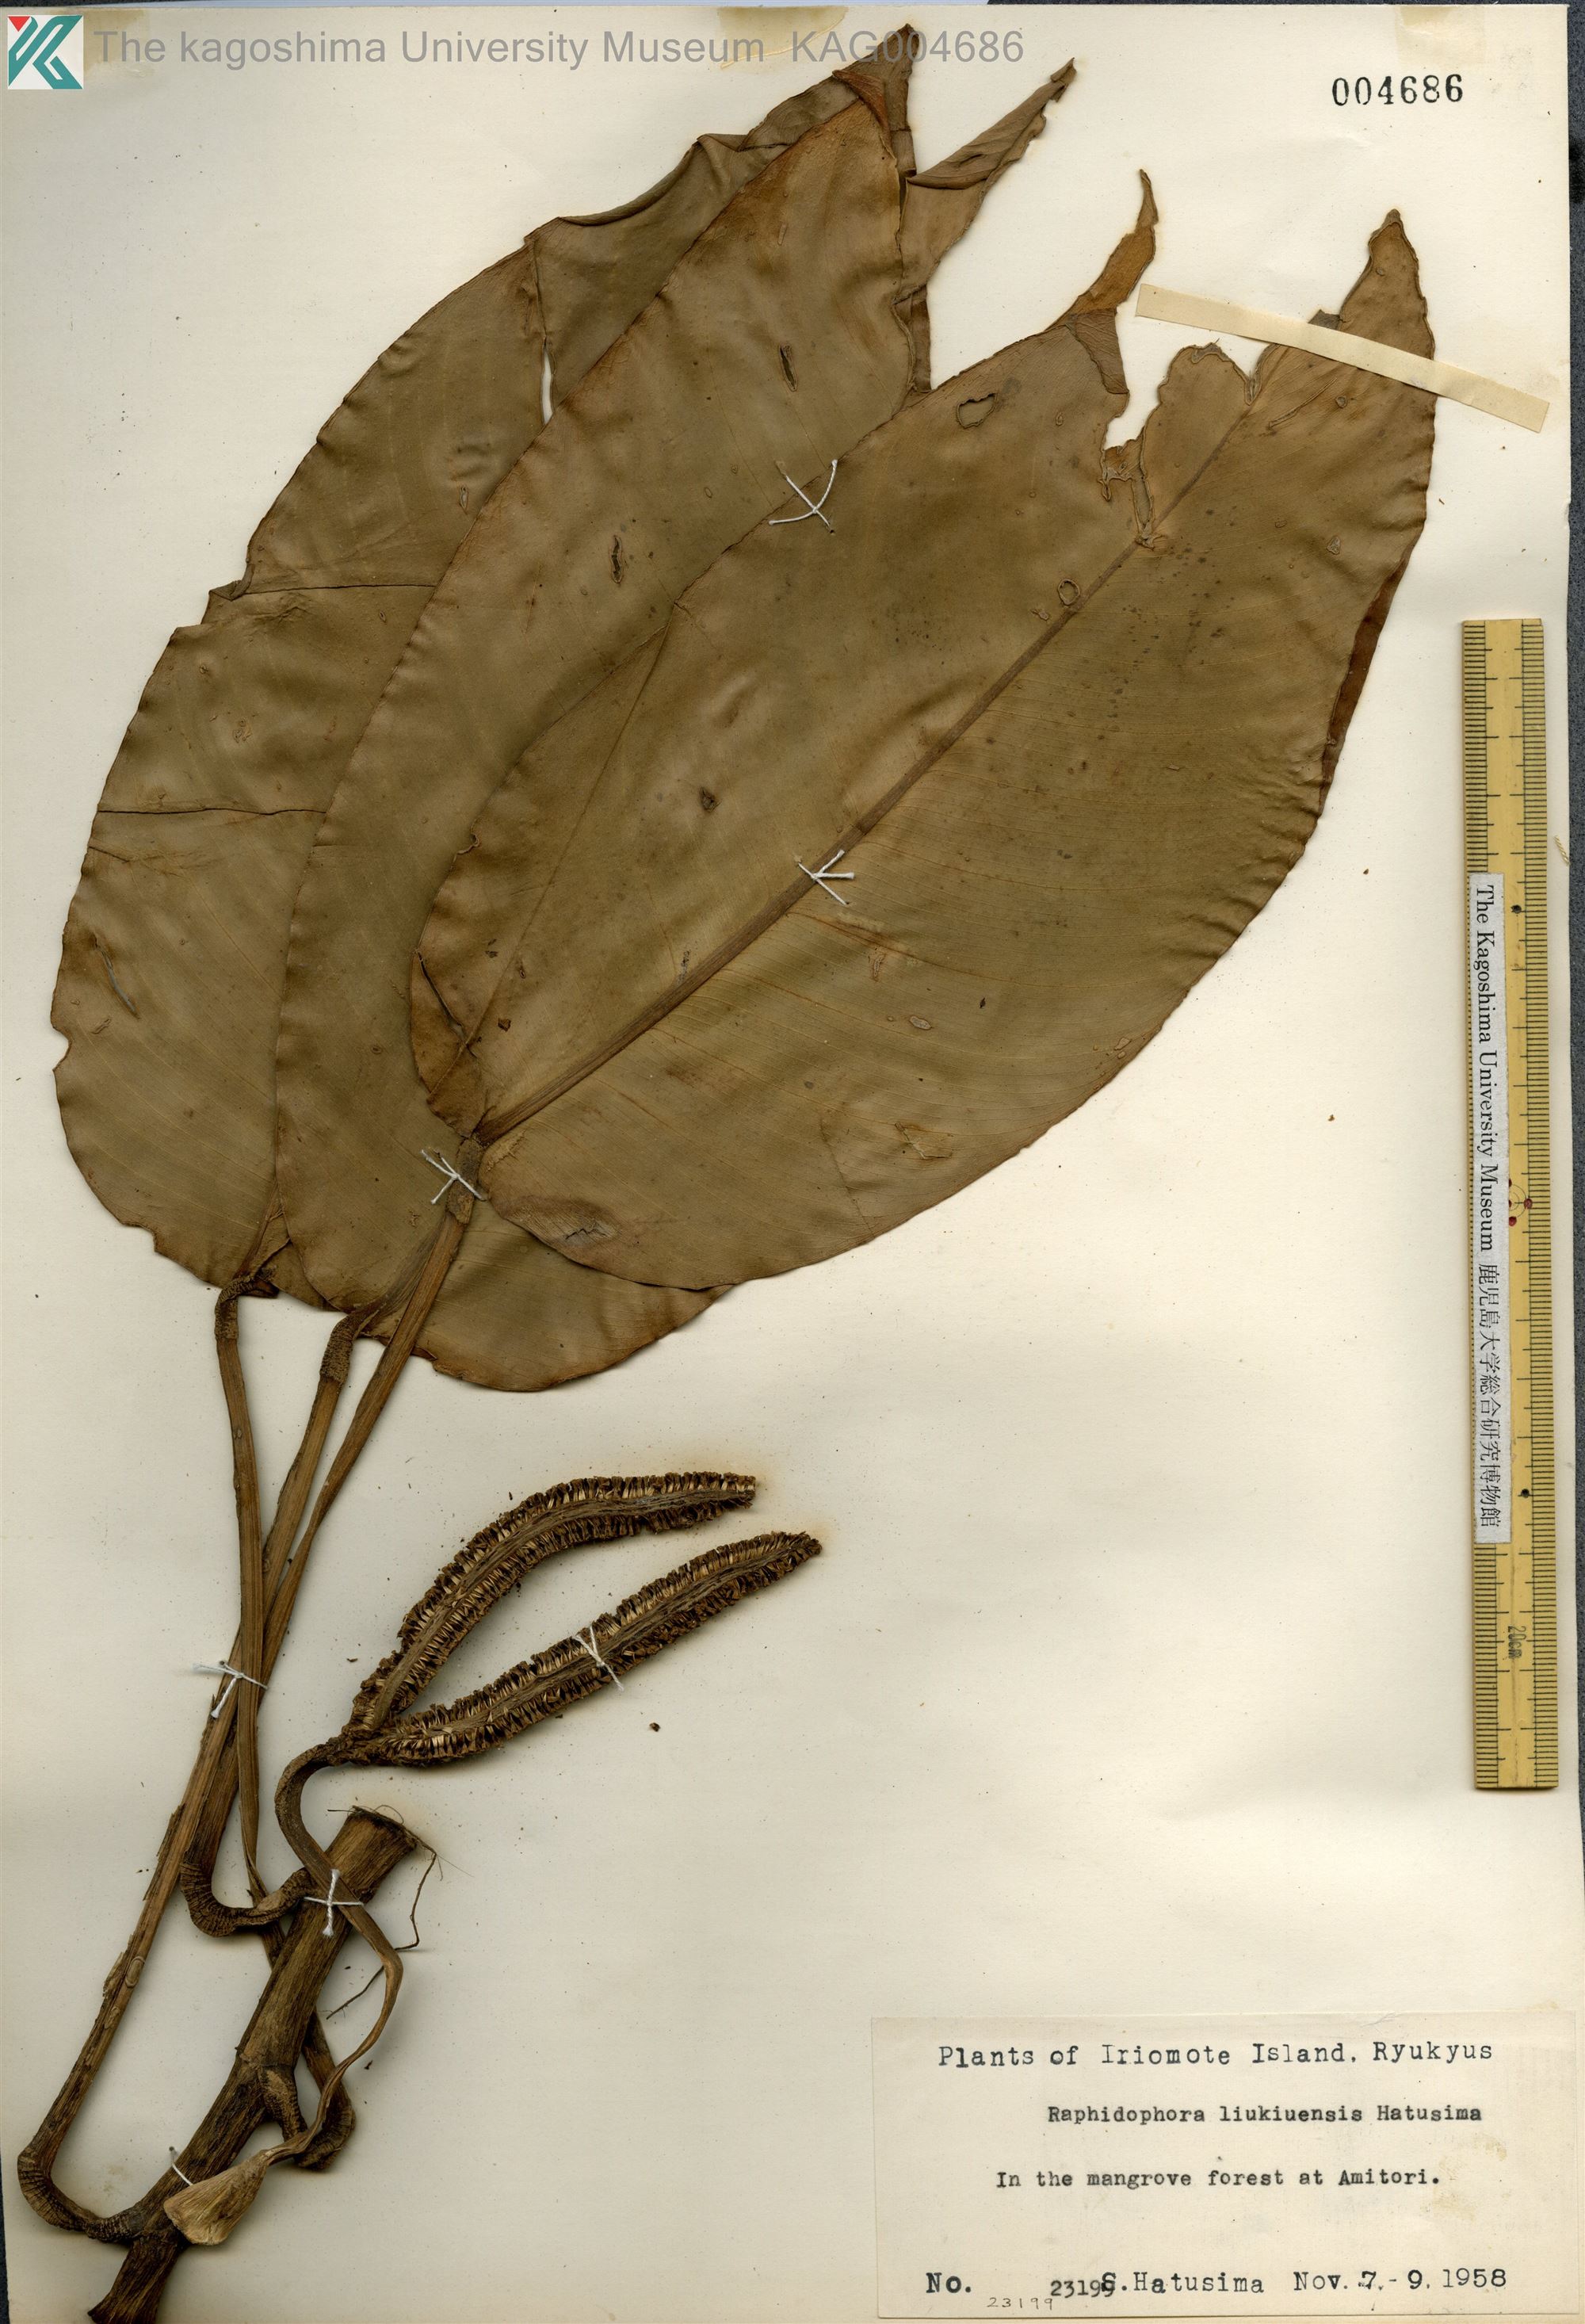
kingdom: Plantae
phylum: Tracheophyta
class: Liliopsida
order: Alismatales
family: Araceae
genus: Rhaphidophora
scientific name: Rhaphidophora liukiuensis
